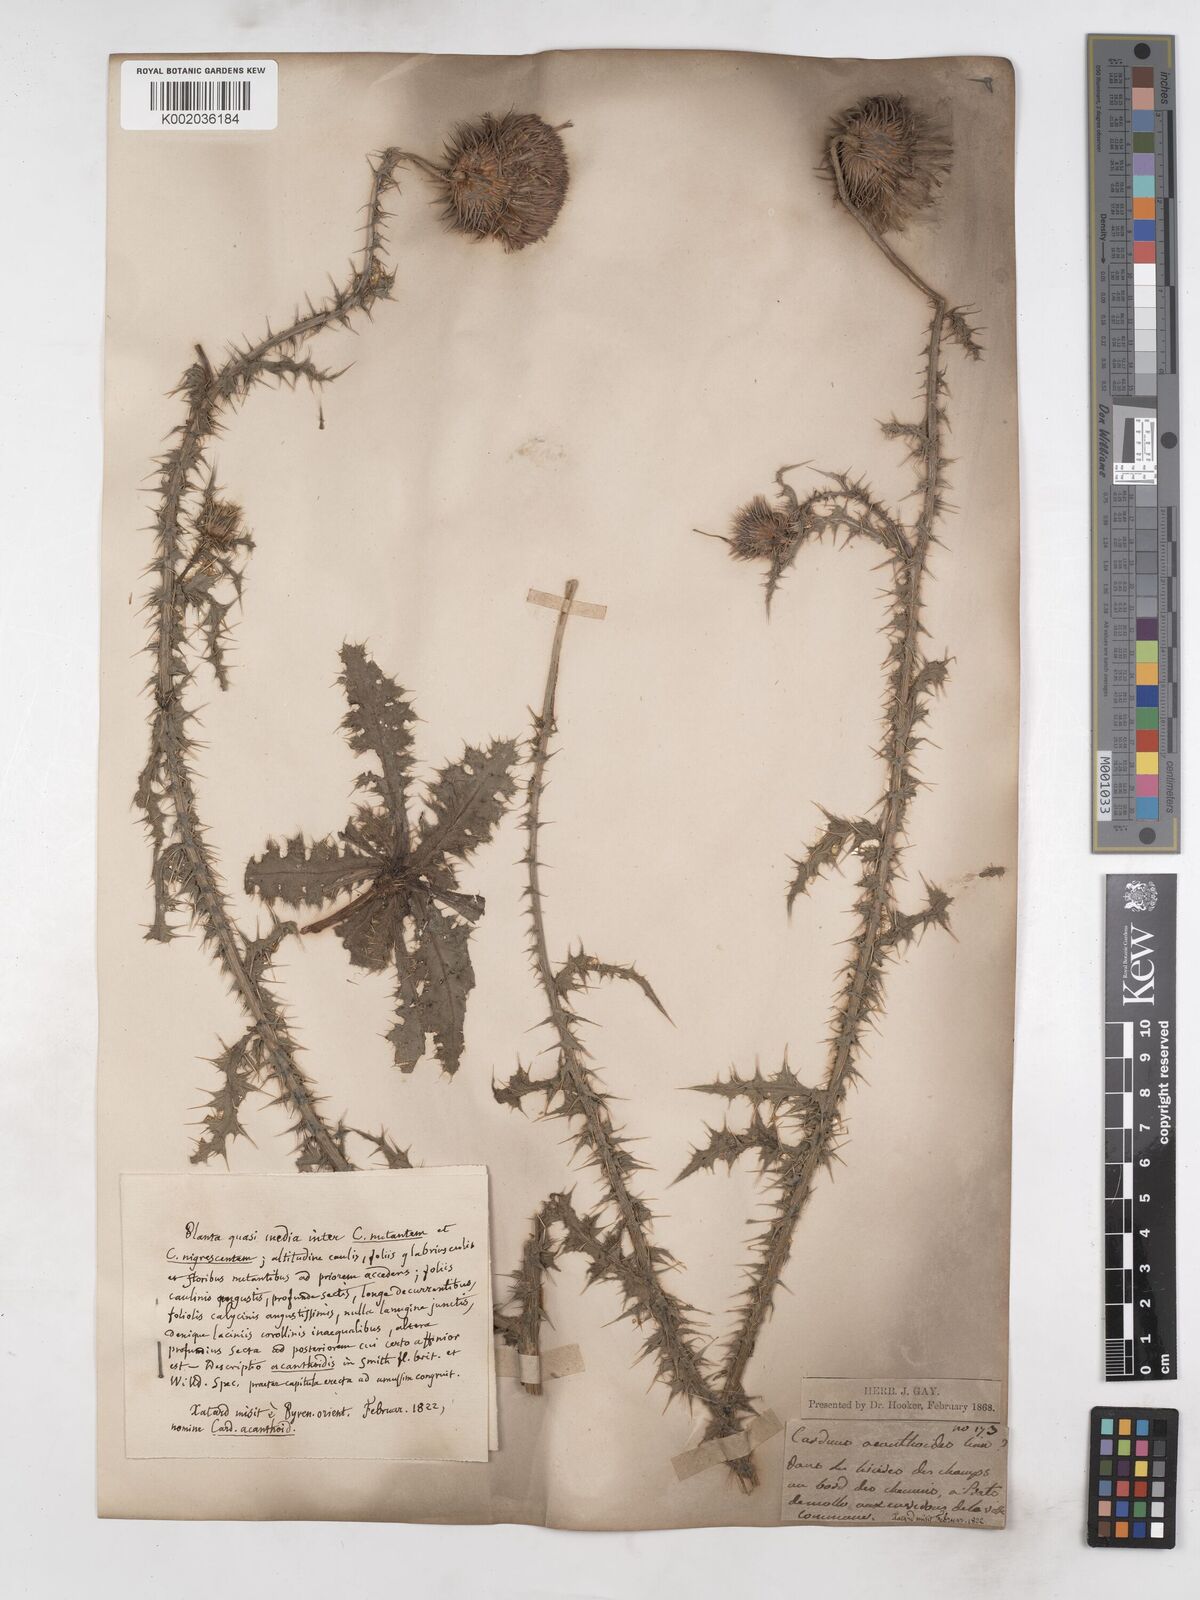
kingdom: Plantae
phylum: Tracheophyta
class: Magnoliopsida
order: Asterales
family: Asteraceae
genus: Carduus
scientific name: Carduus nigrescens
